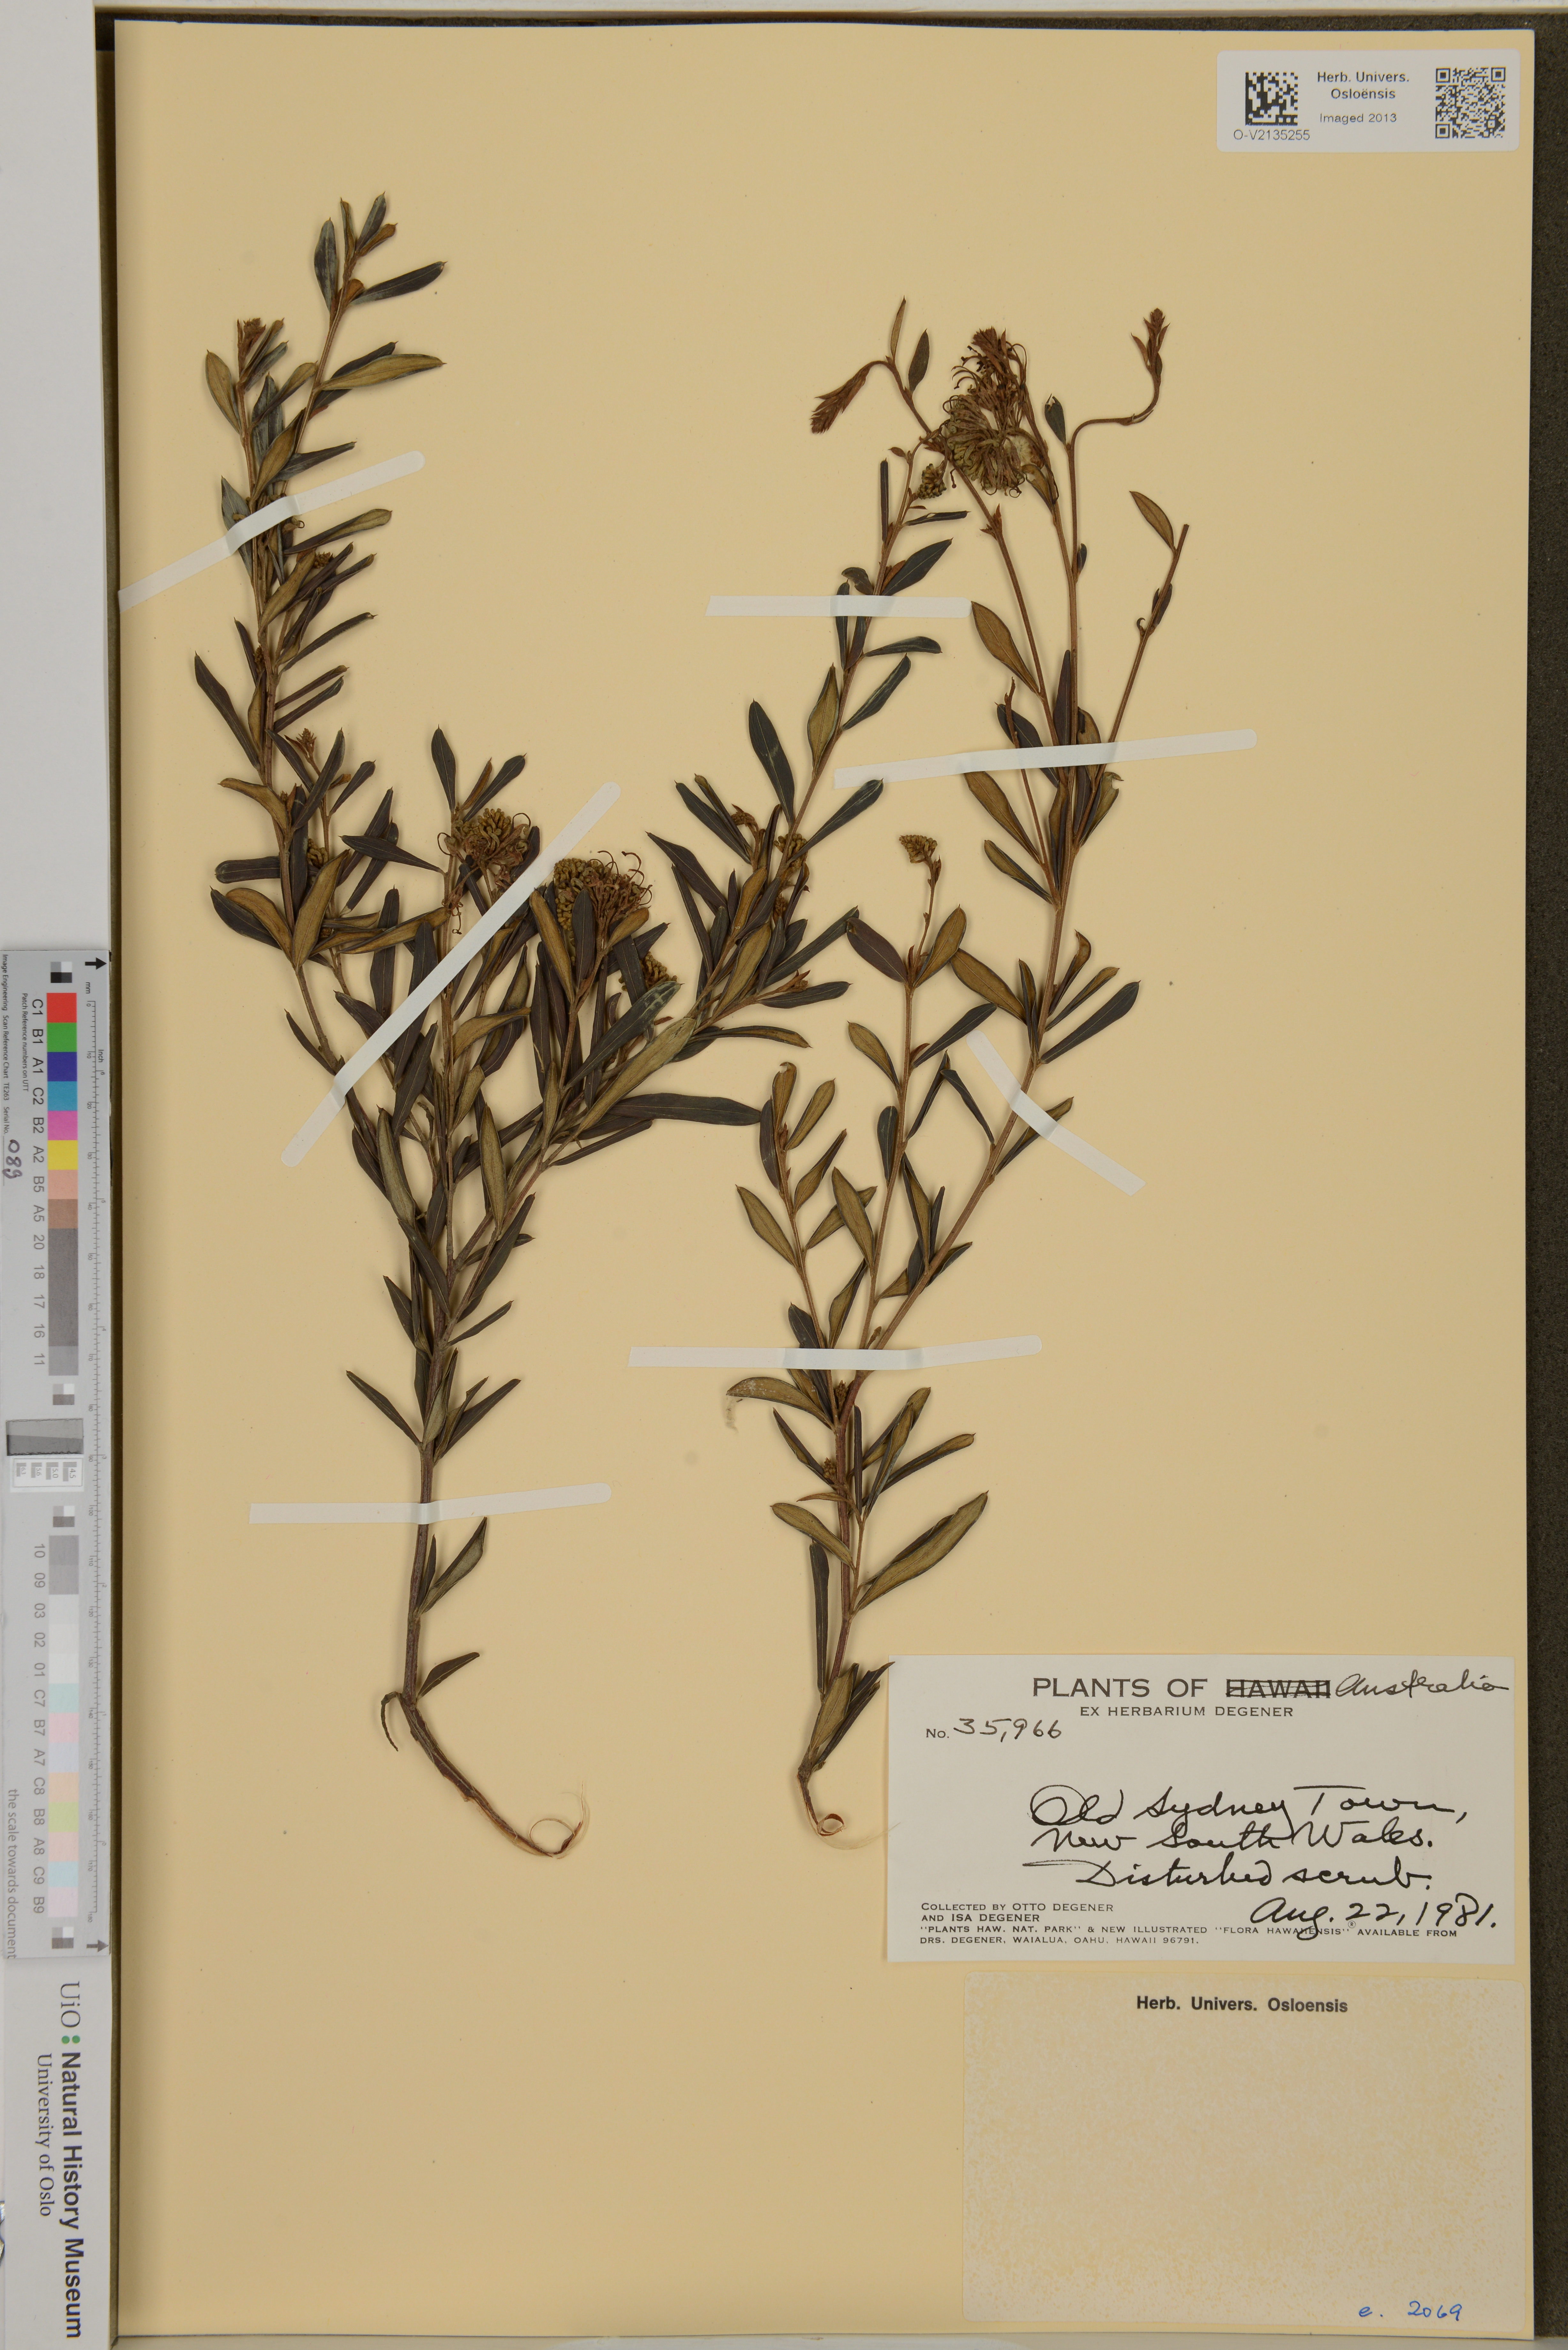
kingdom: Plantae
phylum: Tracheophyta
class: Magnoliopsida
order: Proteales
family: Proteaceae
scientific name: Proteaceae
